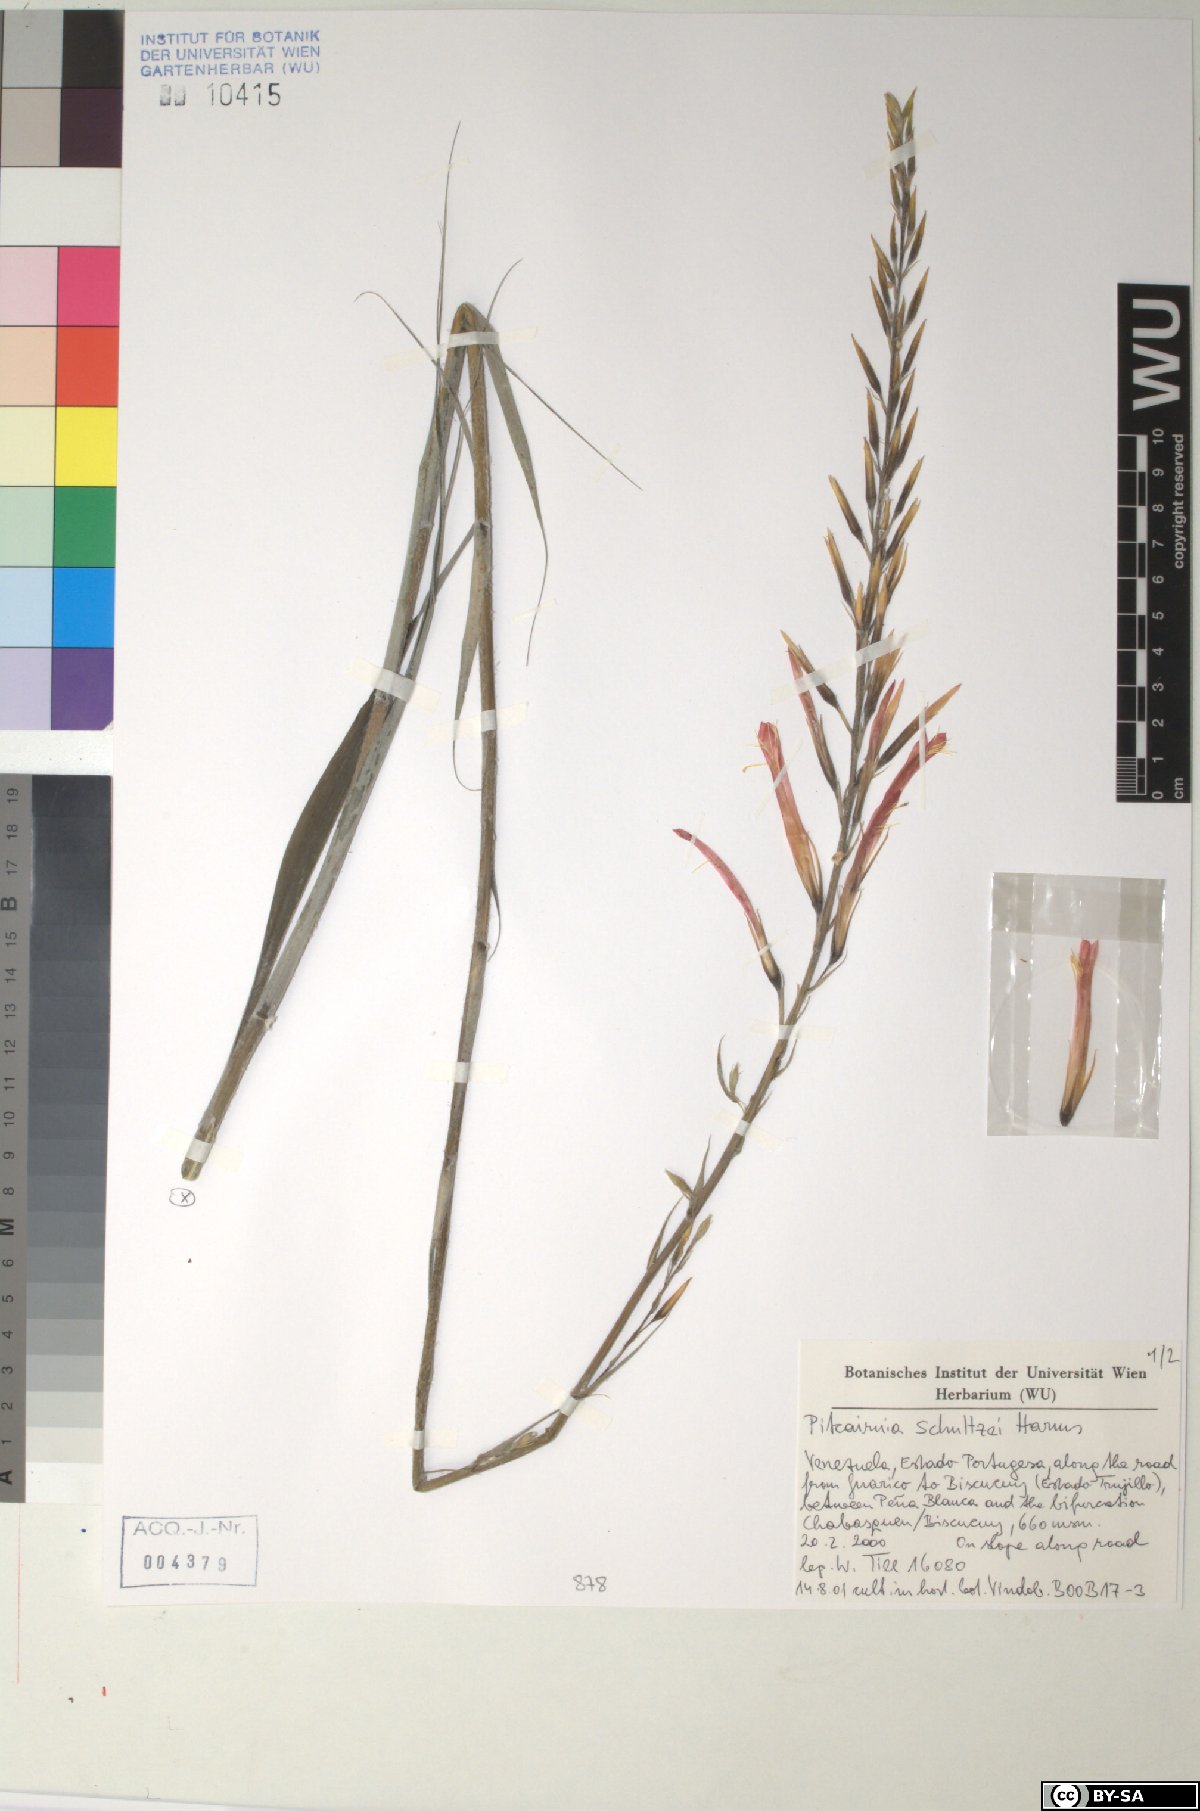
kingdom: Plantae
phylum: Tracheophyta
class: Liliopsida
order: Poales
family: Bromeliaceae
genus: Pitcairnia
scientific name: Pitcairnia schultzei
